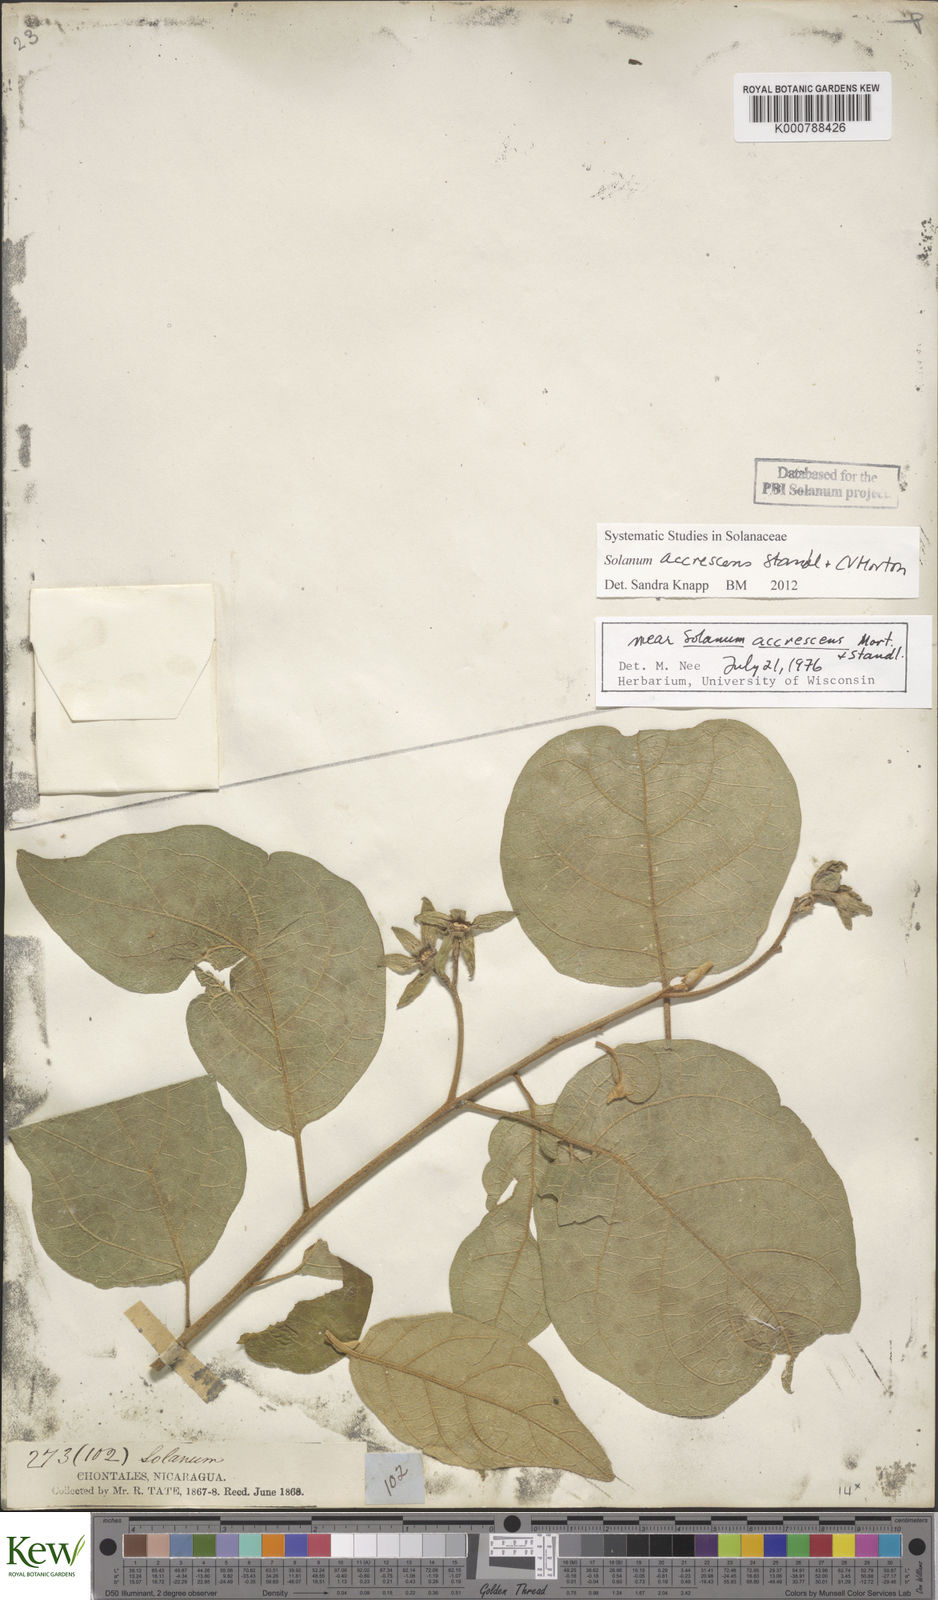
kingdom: Plantae
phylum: Tracheophyta
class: Magnoliopsida
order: Solanales
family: Solanaceae
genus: Solanum
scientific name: Solanum accrescens
